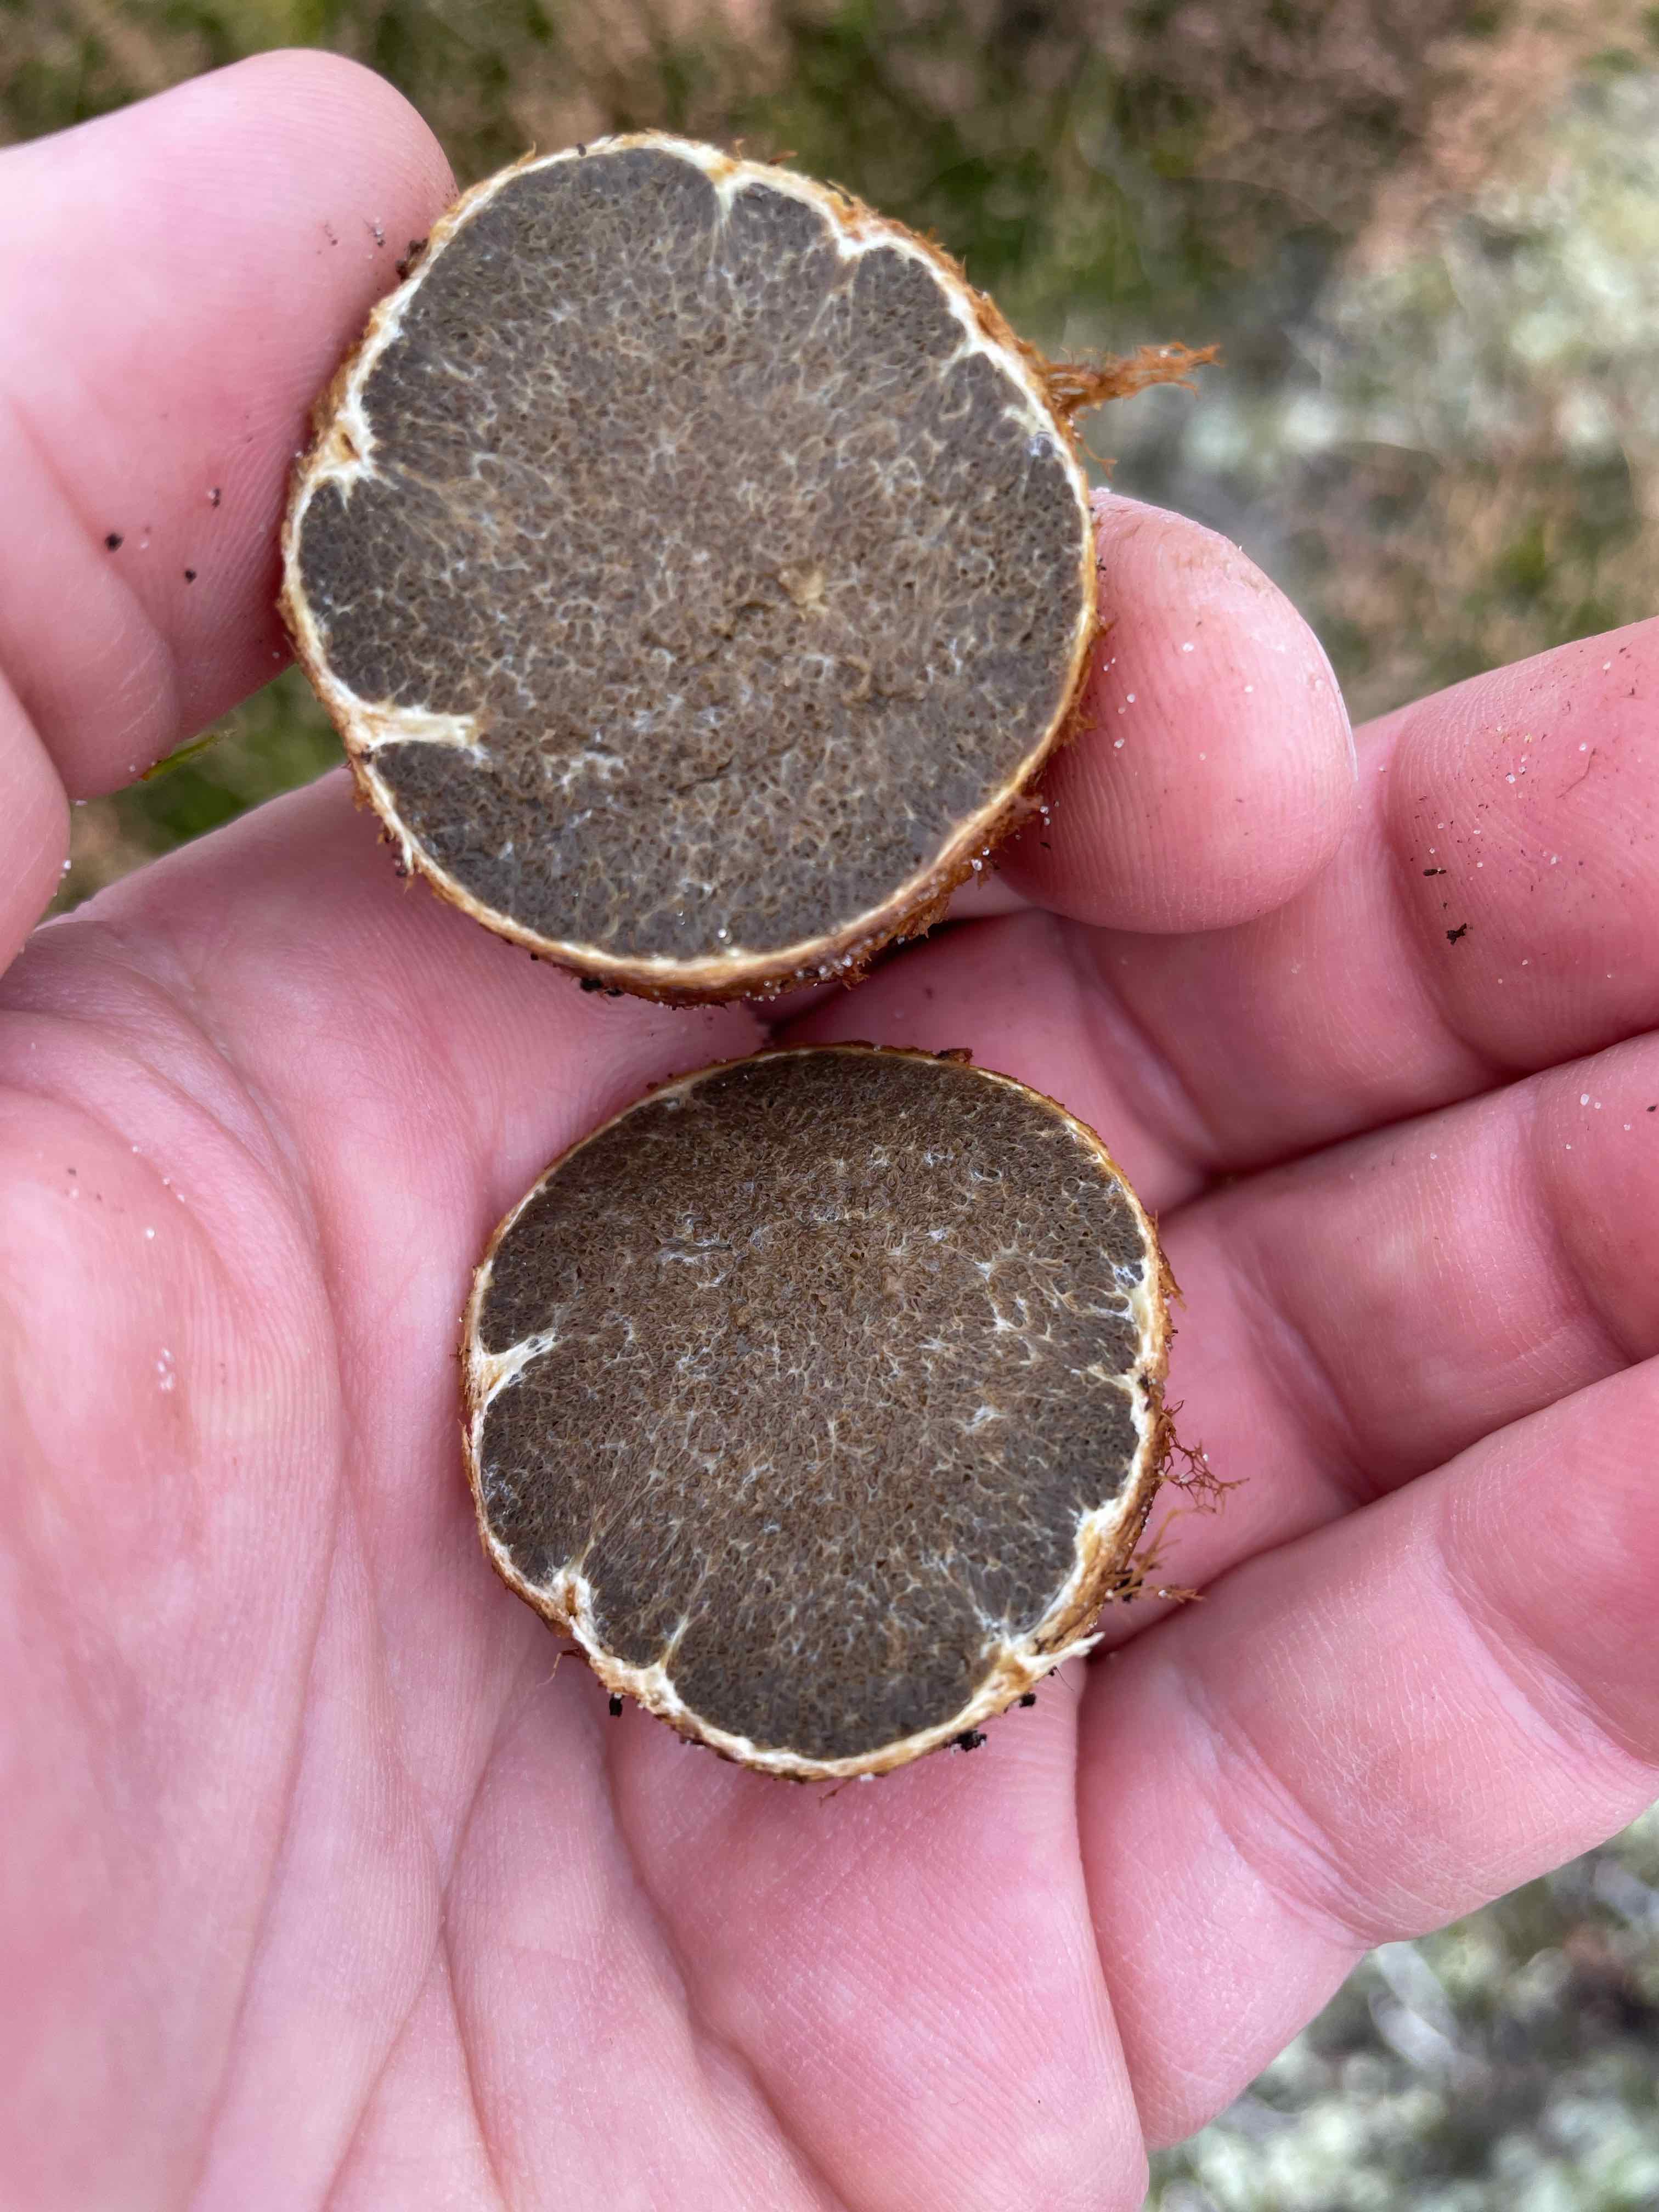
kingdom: Fungi
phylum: Basidiomycota
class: Agaricomycetes
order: Boletales
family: Rhizopogonaceae
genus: Rhizopogon
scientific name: Rhizopogon obtextus
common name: gul skægtrøffel
